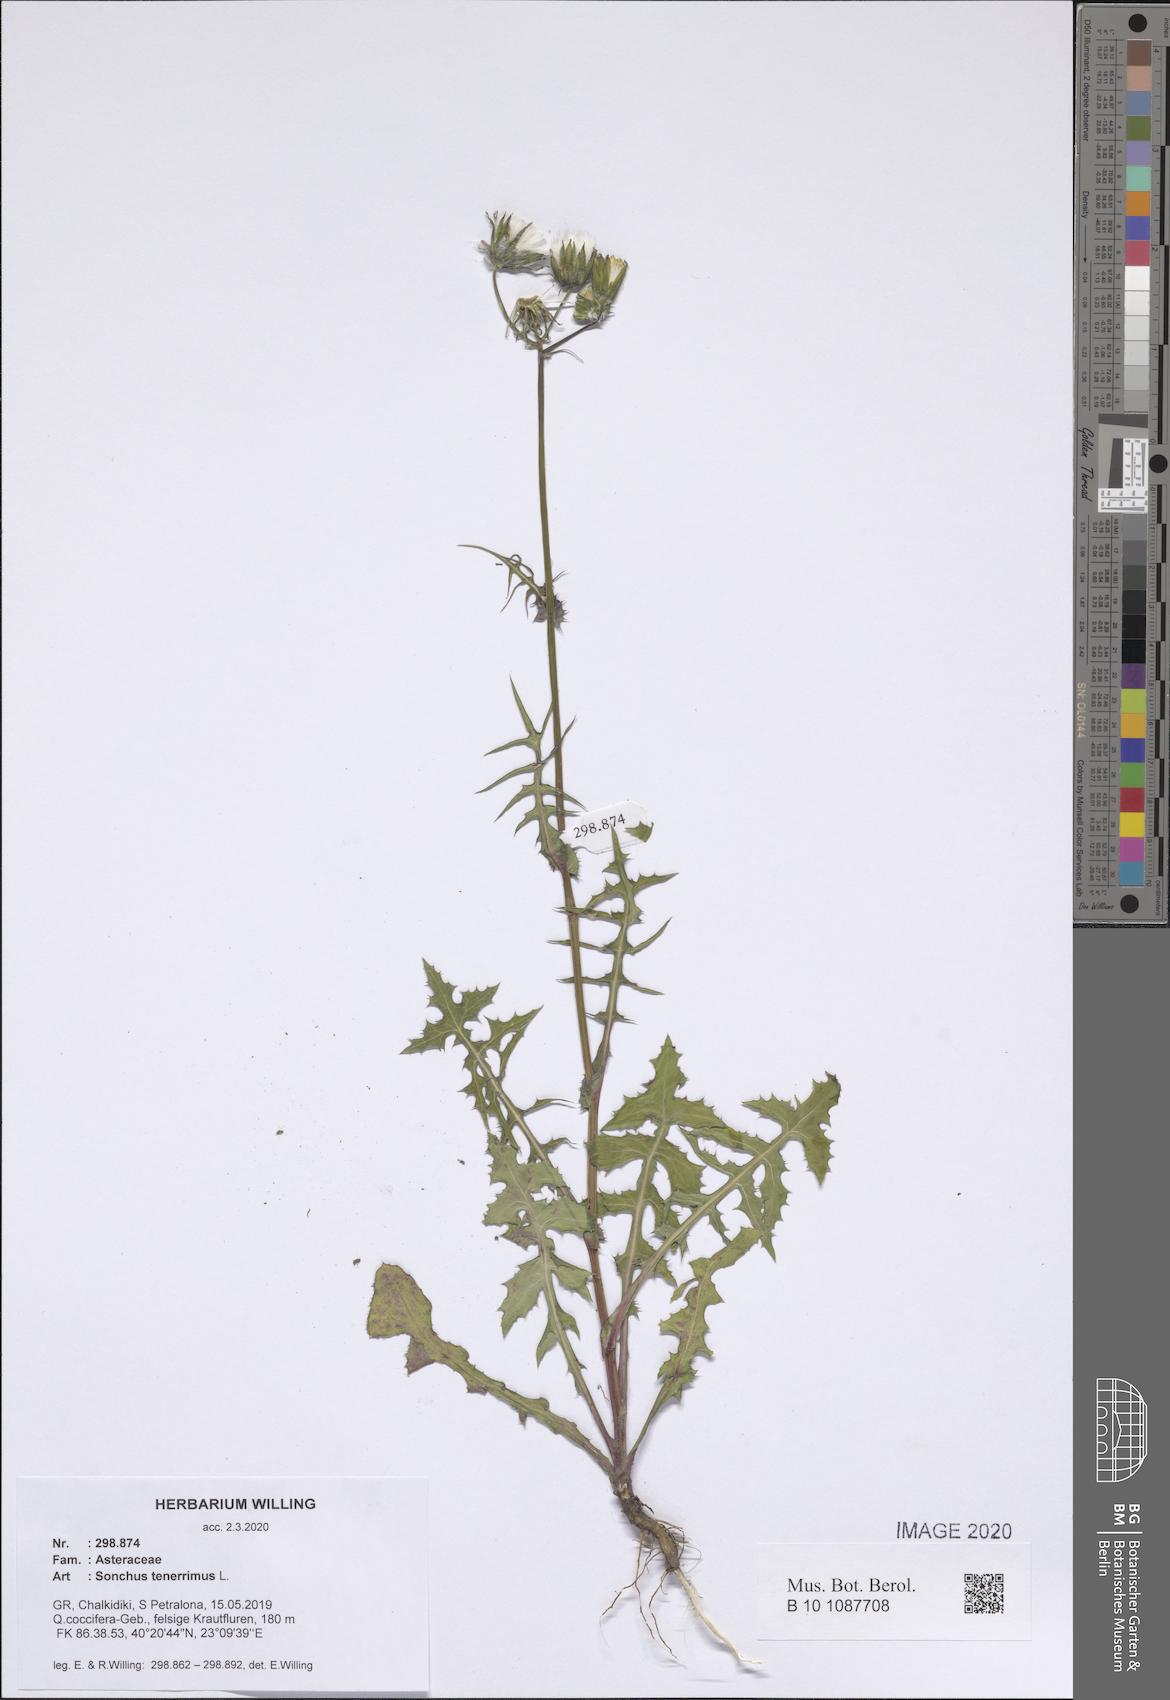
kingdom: Plantae
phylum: Tracheophyta
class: Magnoliopsida
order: Asterales
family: Asteraceae
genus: Sonchus
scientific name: Sonchus tenerrimus
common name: Clammy sowthistle
